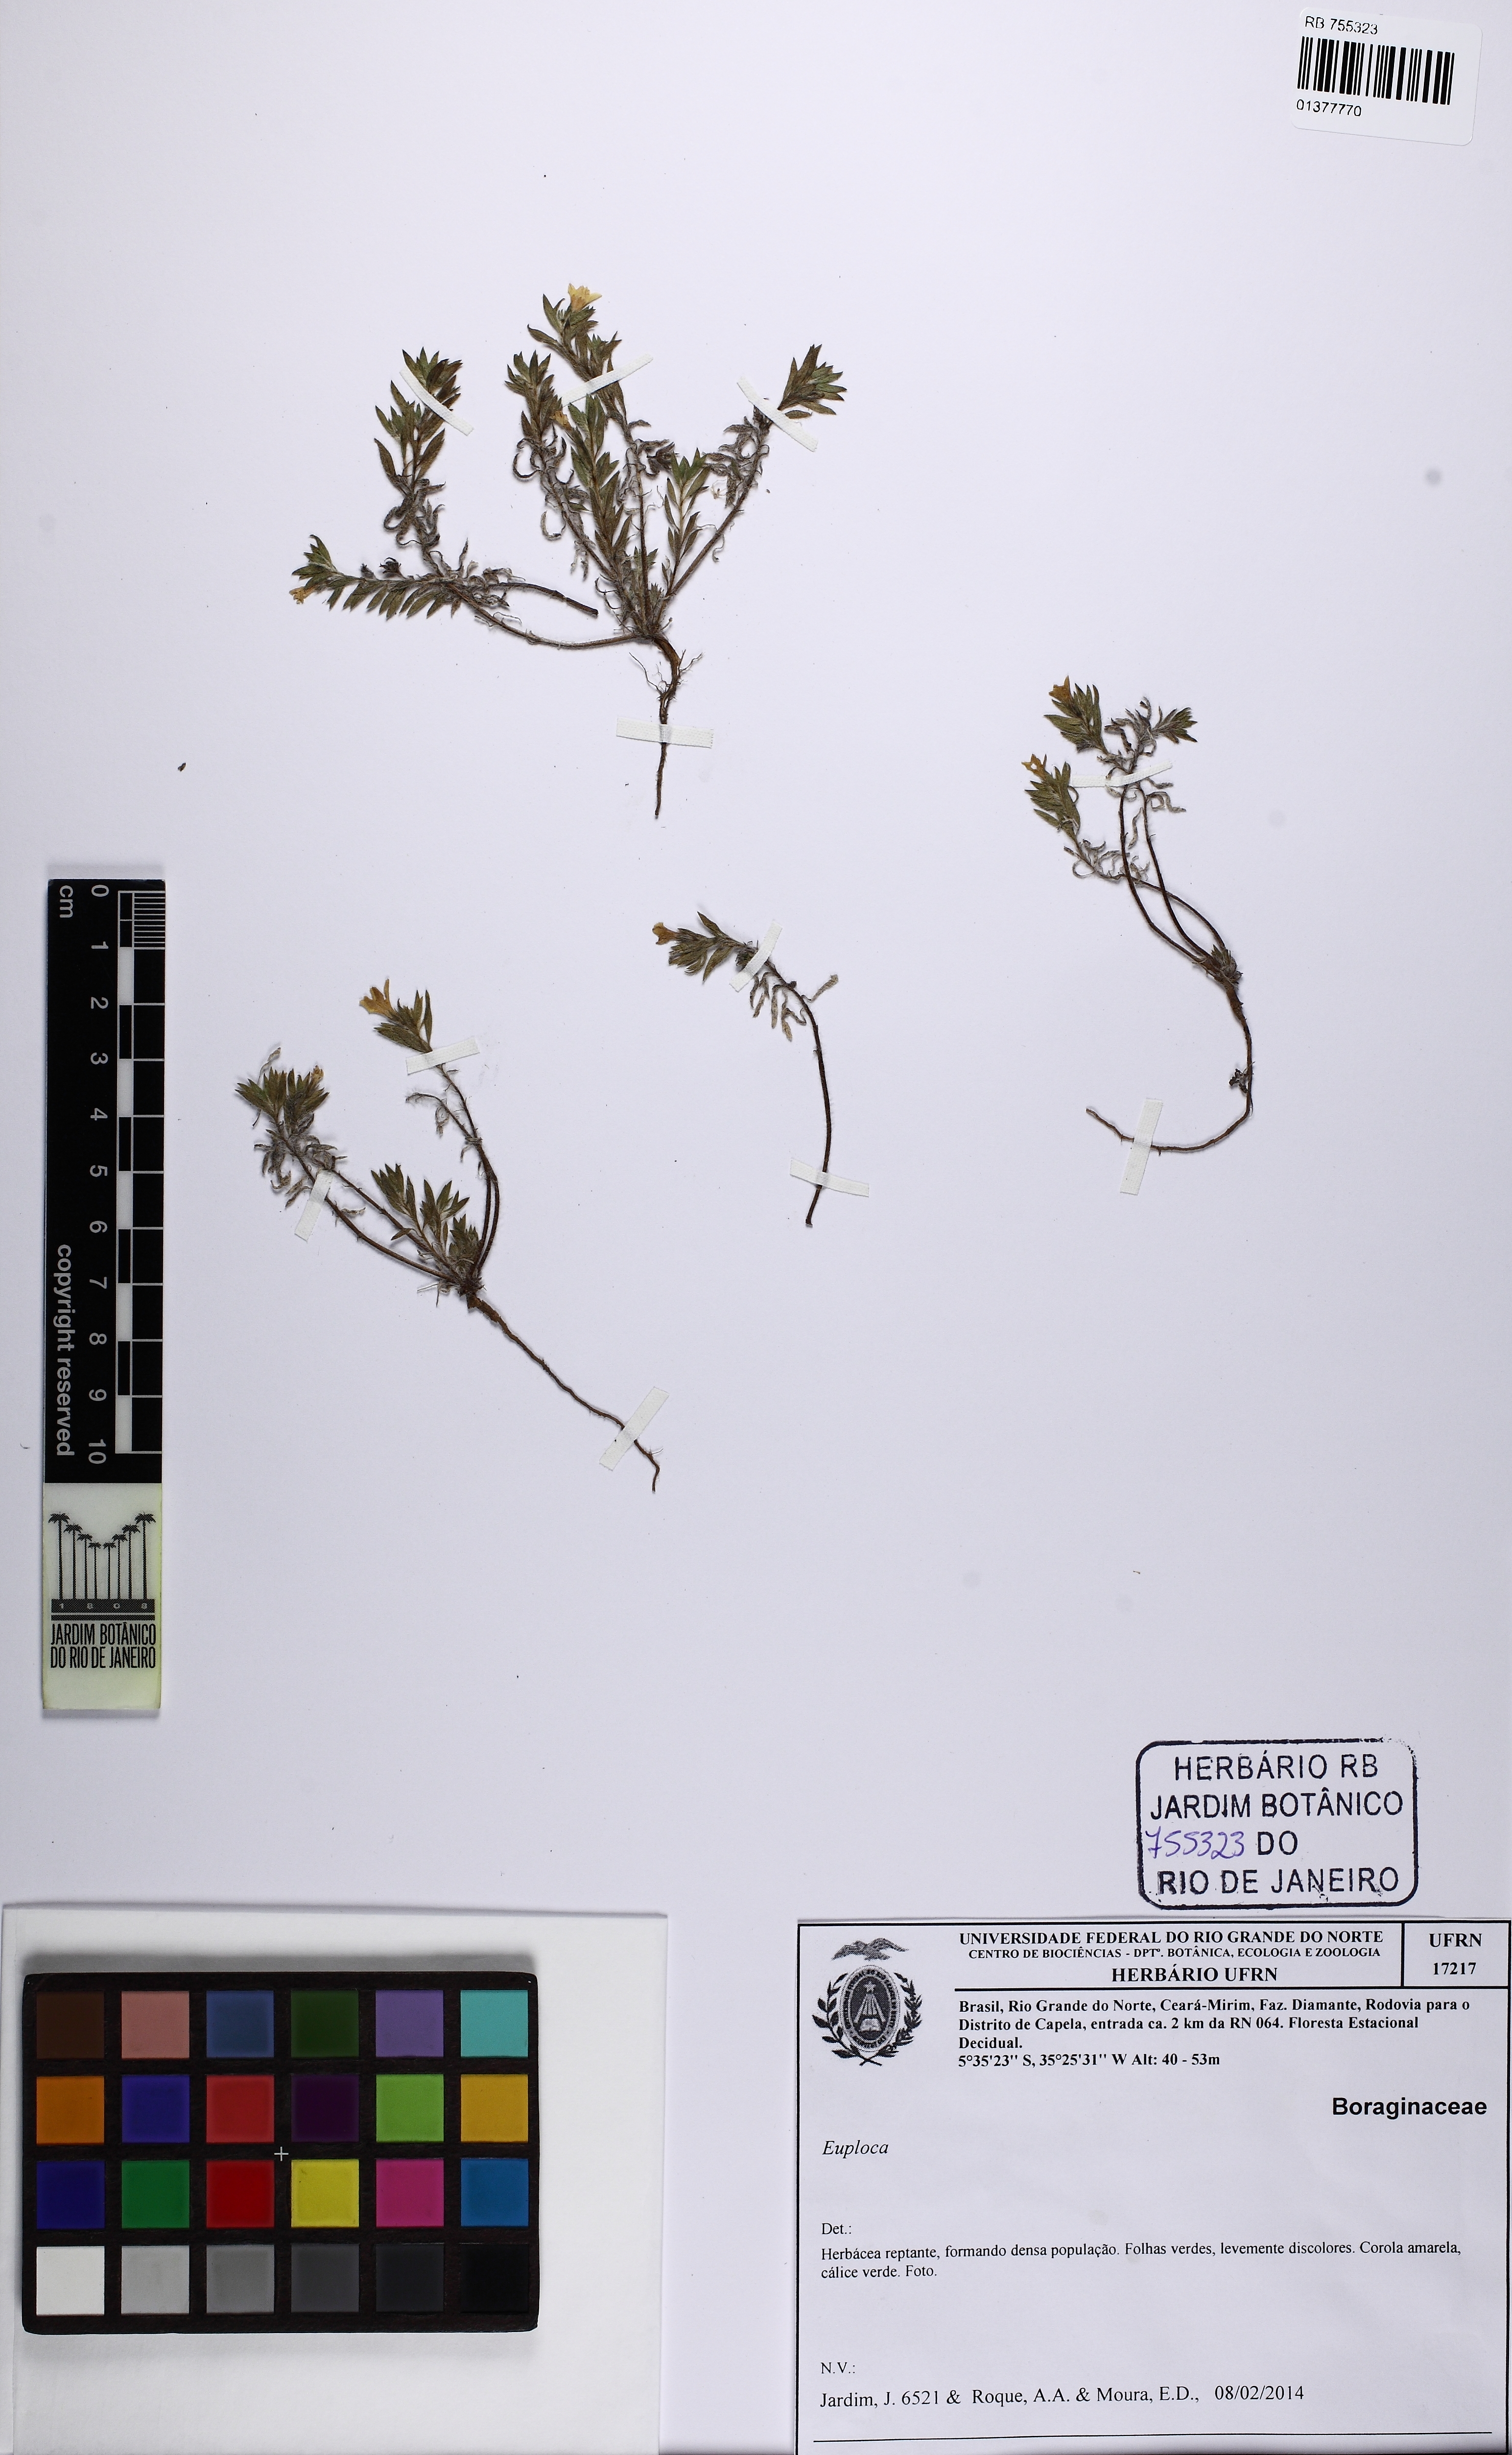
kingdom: Plantae
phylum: Tracheophyta
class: Magnoliopsida
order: Boraginales
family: Heliotropiaceae
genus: Euploca
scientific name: Euploca paradoxa
